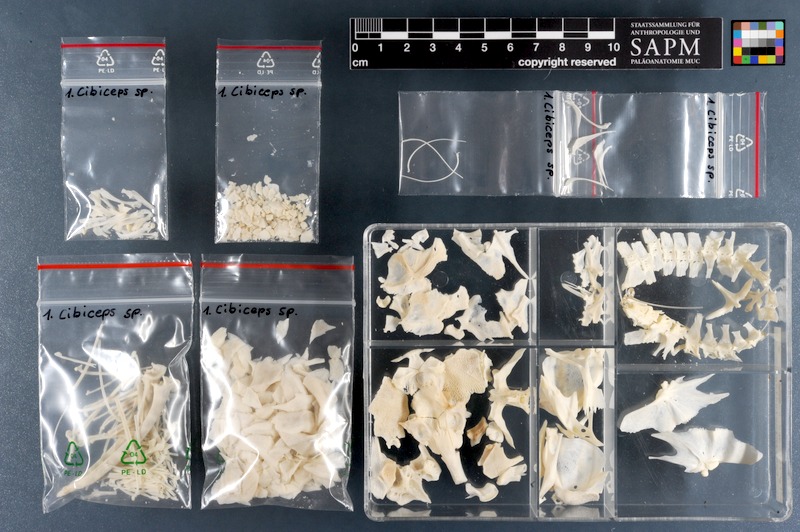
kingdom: Animalia
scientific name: Animalia
